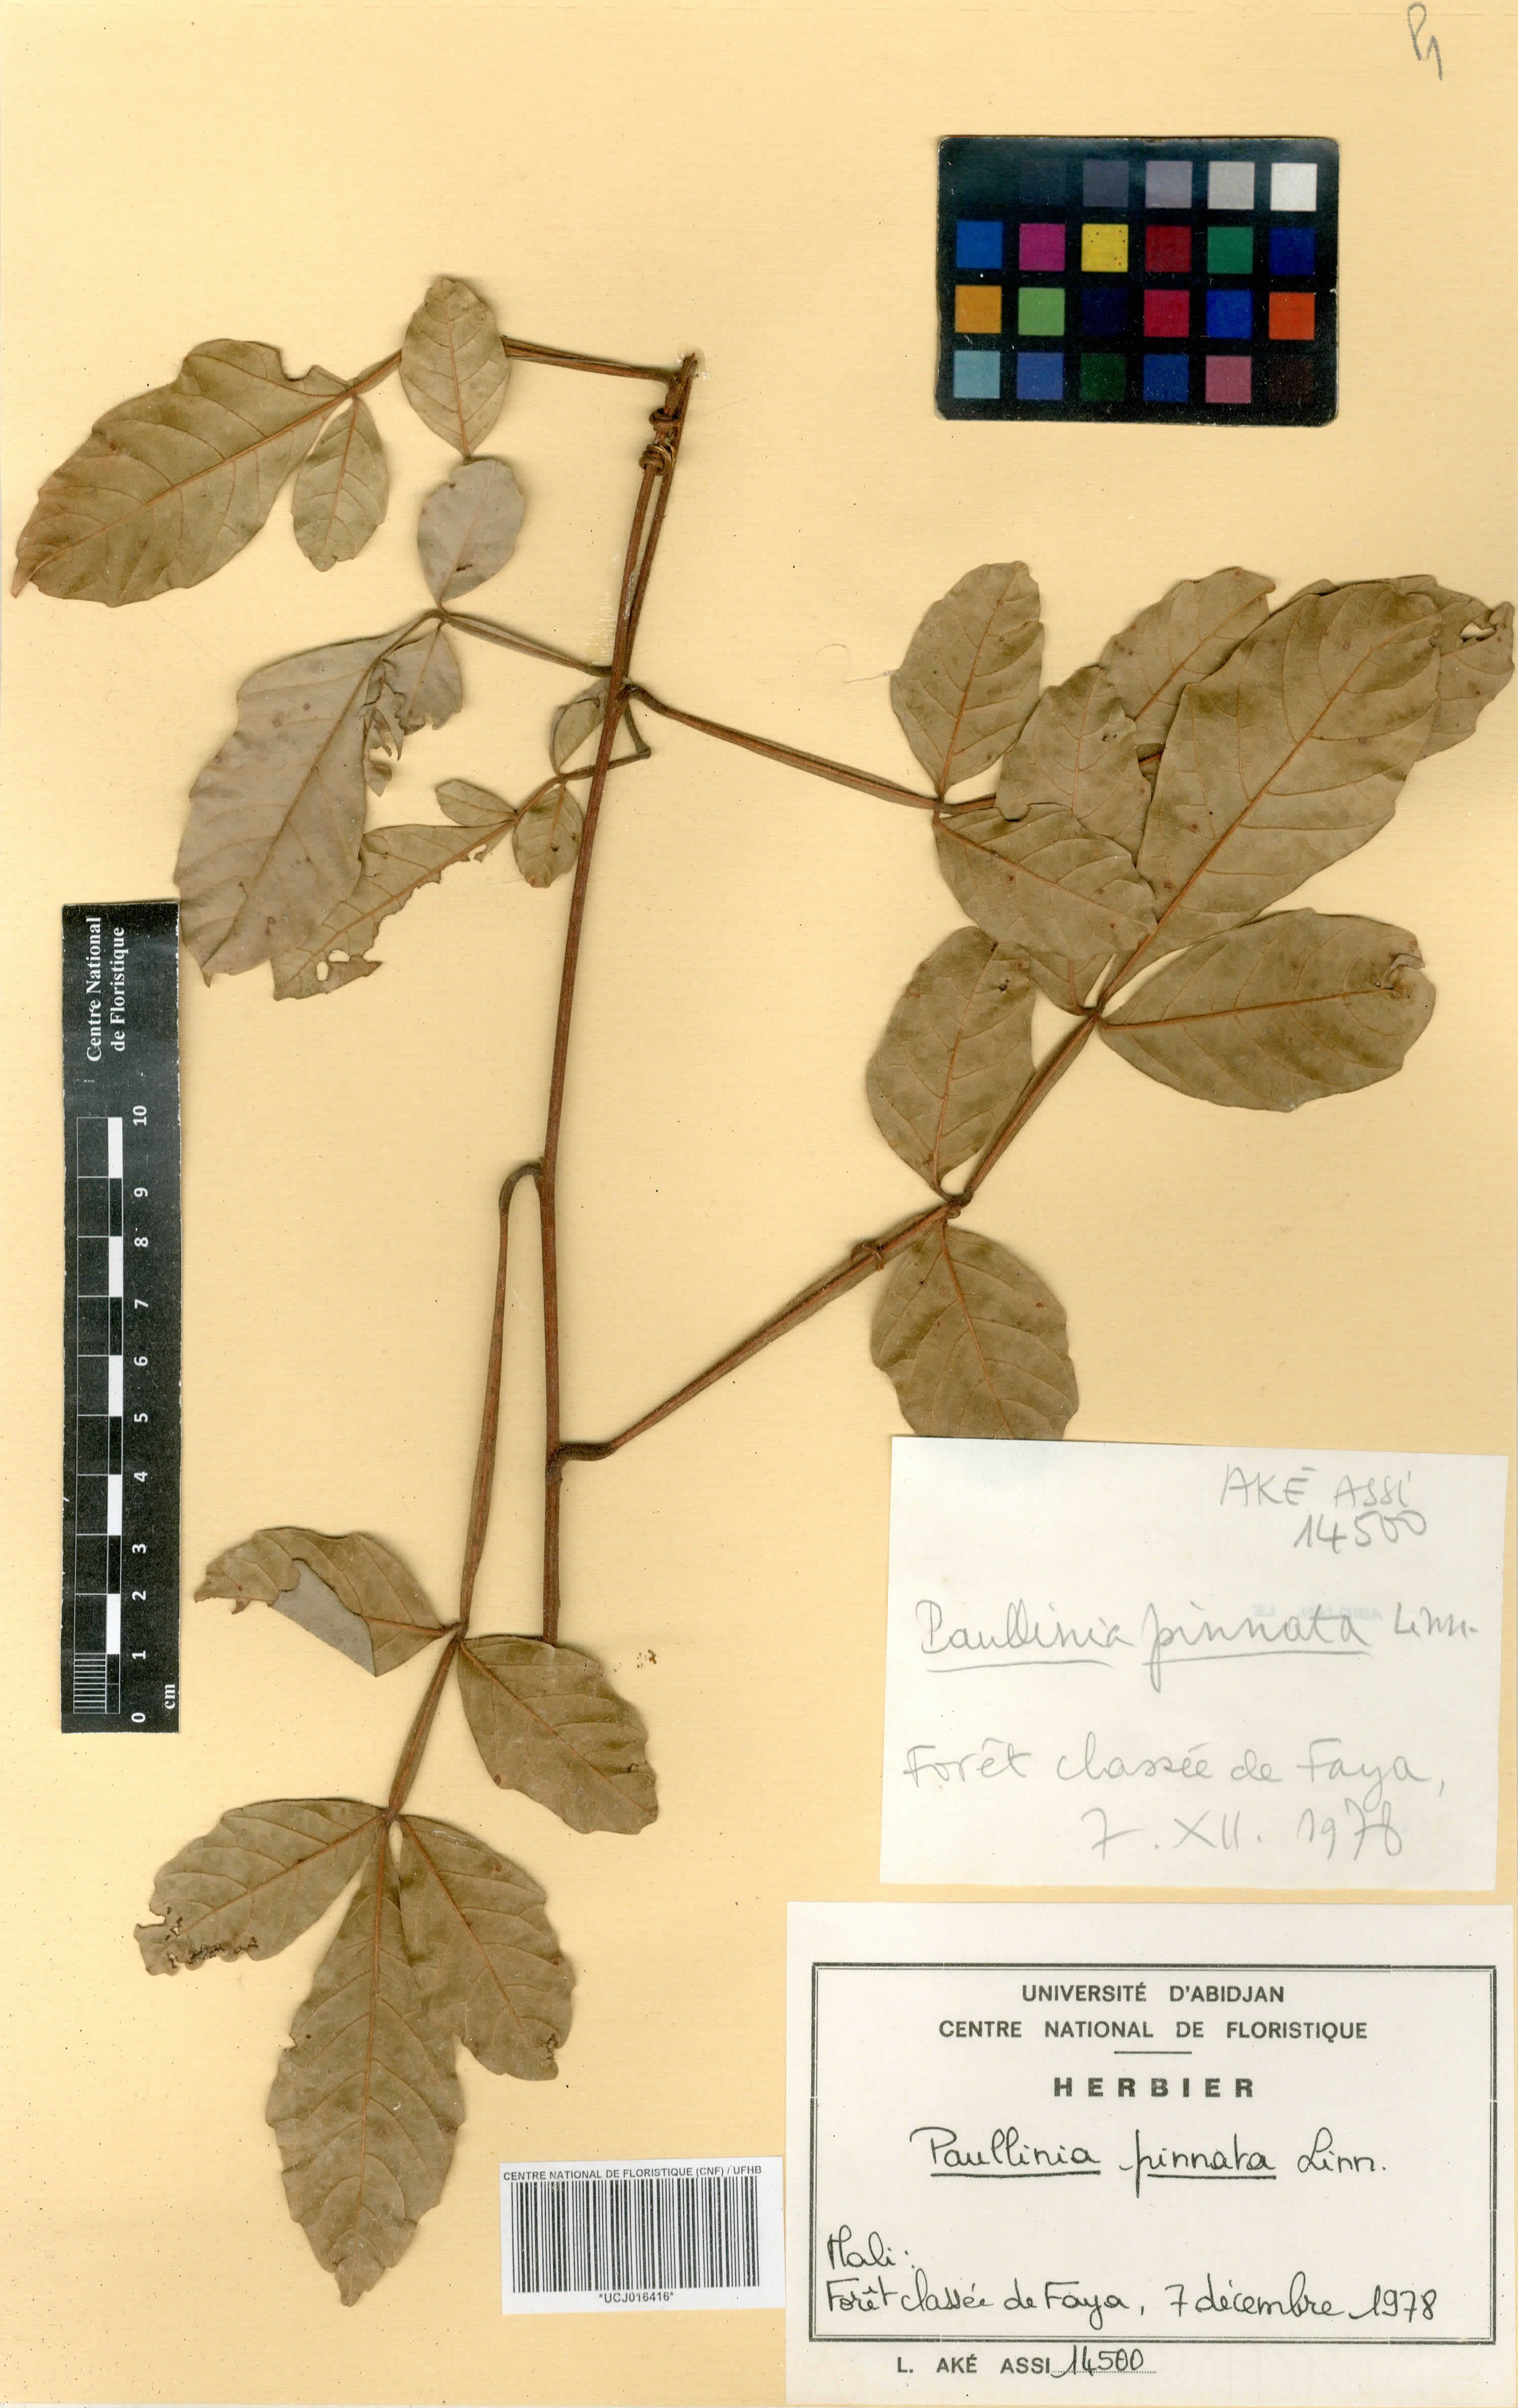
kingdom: Plantae
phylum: Tracheophyta
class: Magnoliopsida
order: Sapindales
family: Sapindaceae
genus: Paullinia
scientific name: Paullinia pinnata
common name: Barbasco
